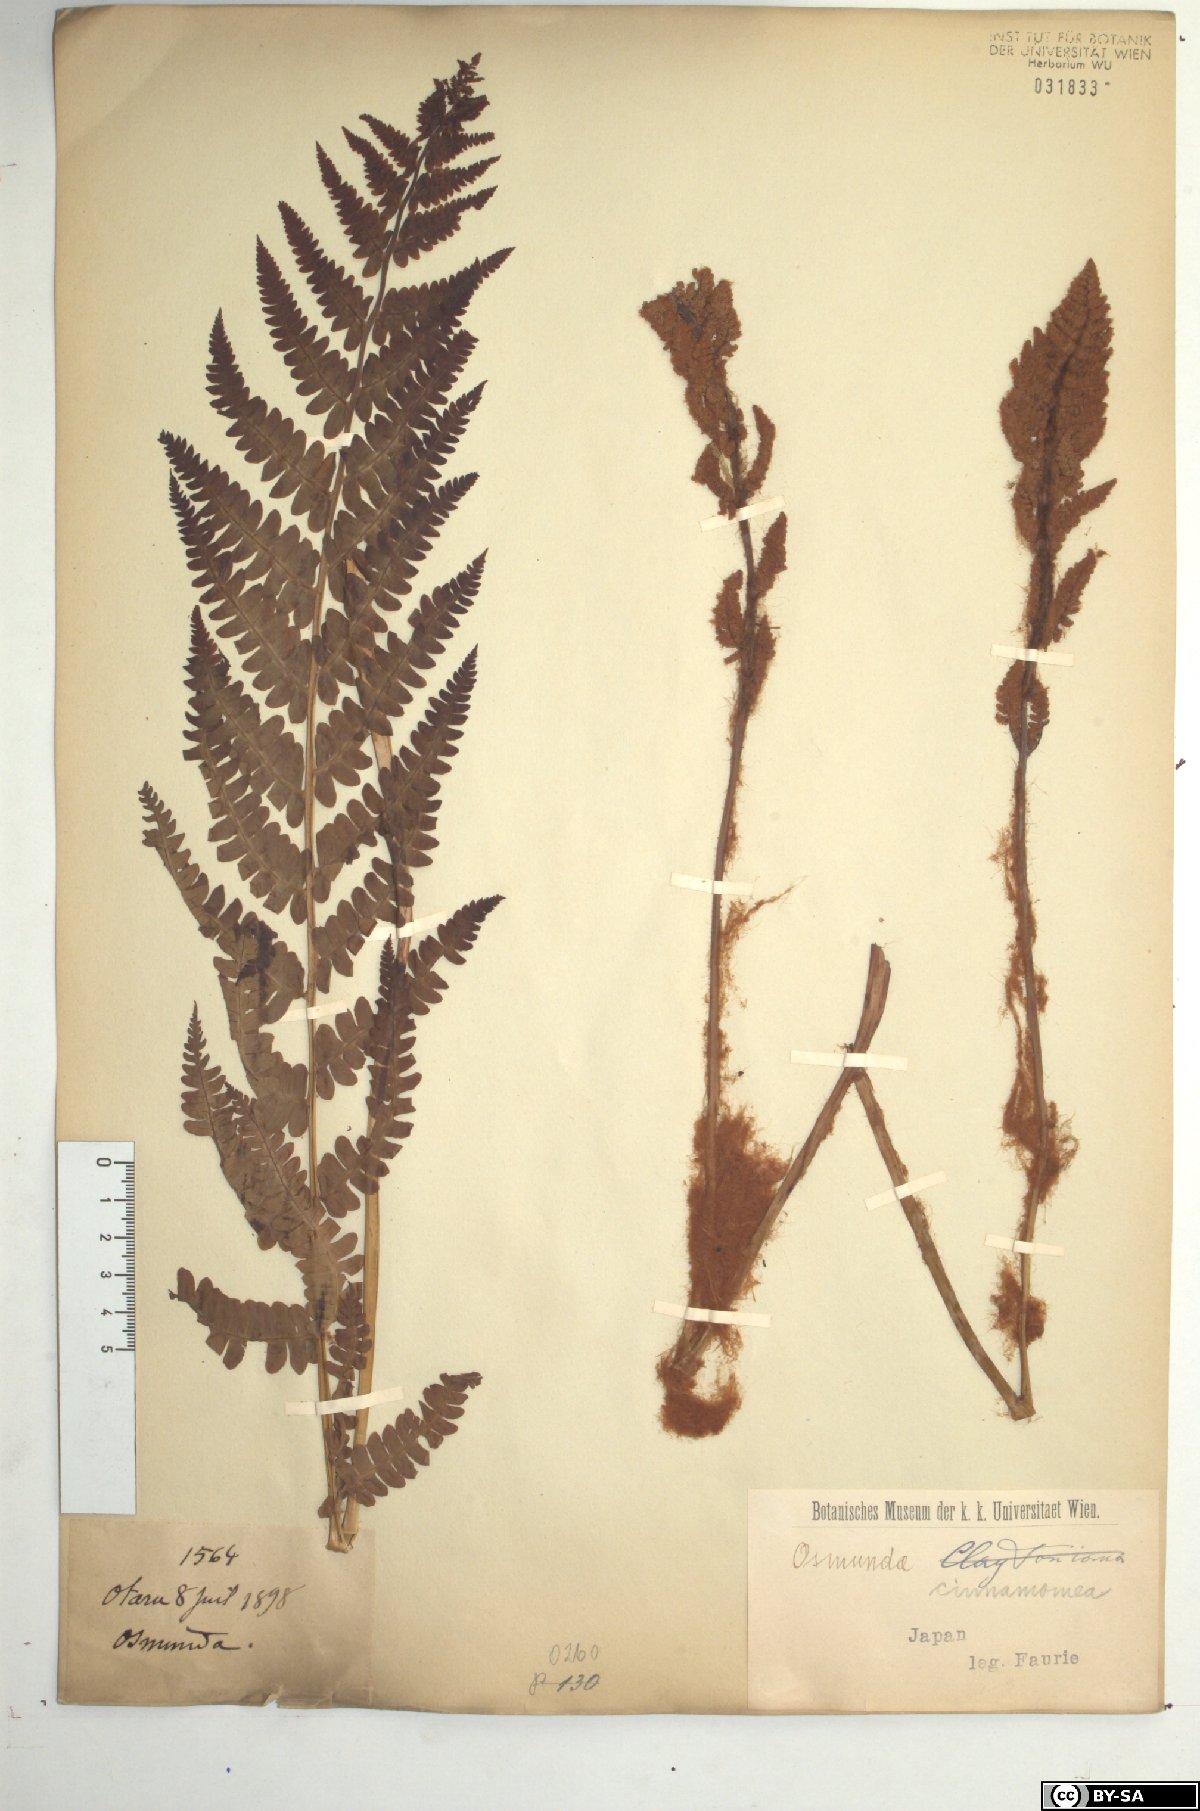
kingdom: Plantae
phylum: Tracheophyta
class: Polypodiopsida
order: Osmundales
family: Osmundaceae
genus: Osmundastrum
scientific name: Osmundastrum cinnamomeum
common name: Cinnamon fern
